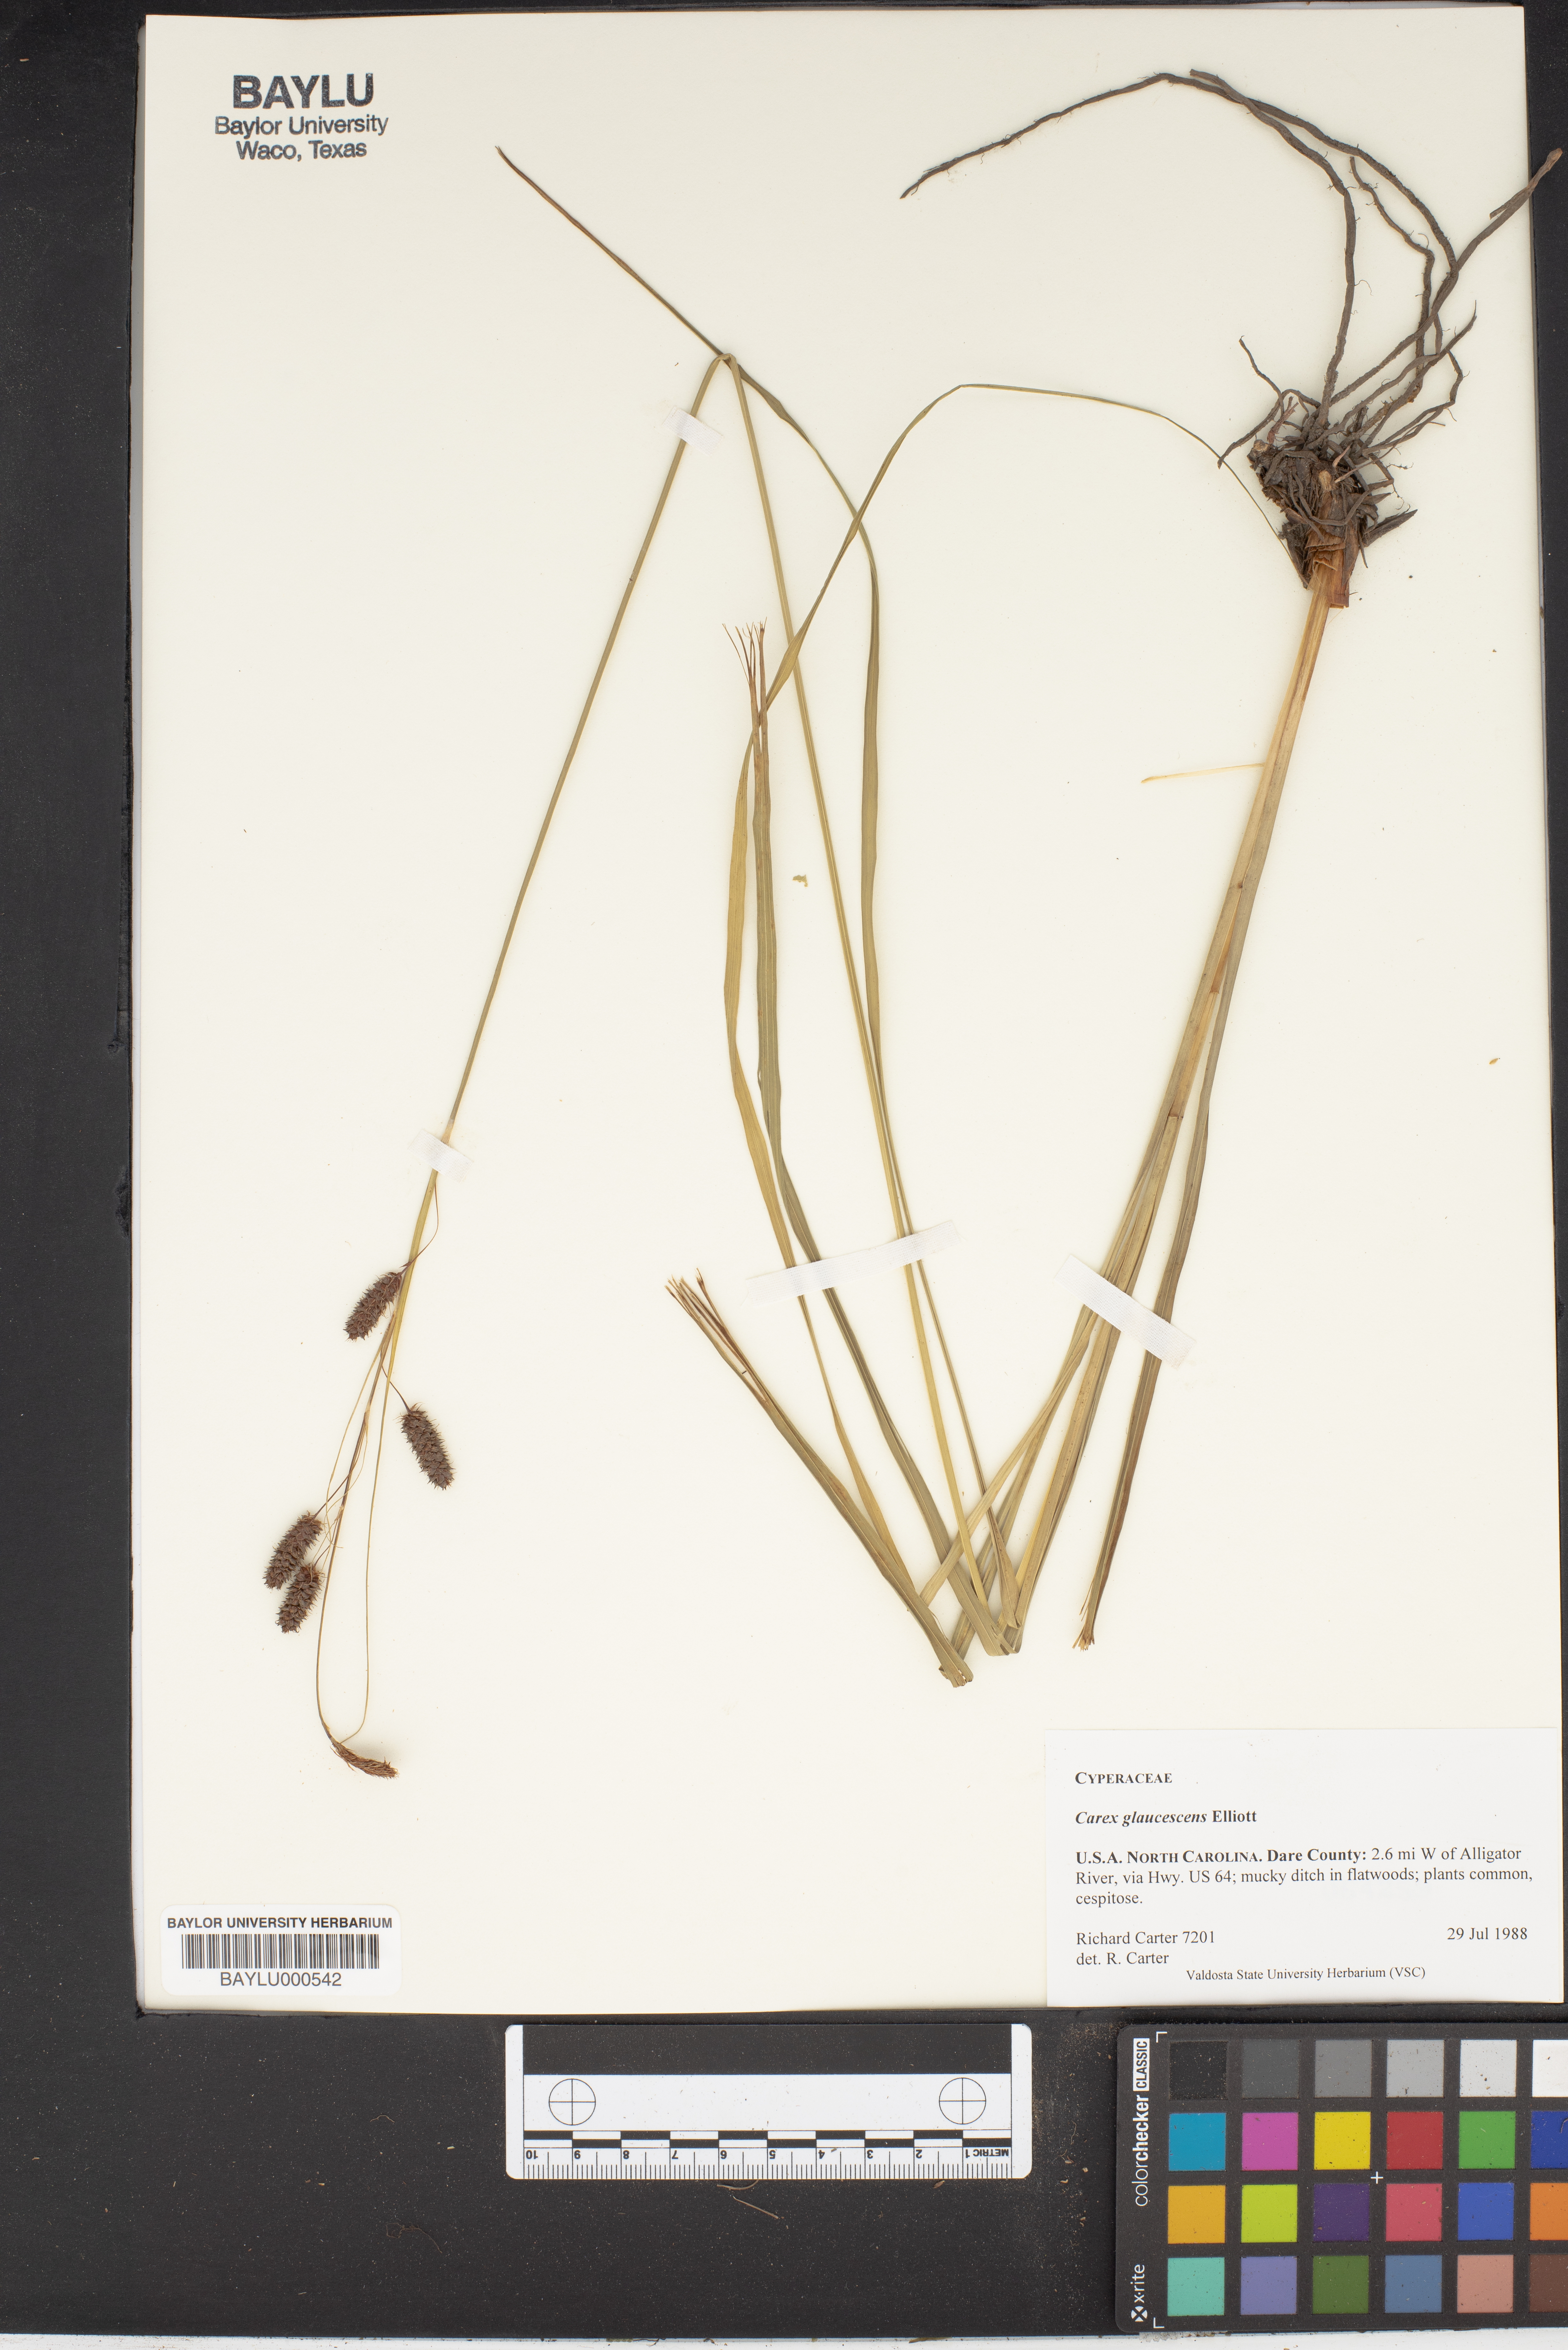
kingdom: Plantae
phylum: Tracheophyta
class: Liliopsida
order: Poales
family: Cyperaceae
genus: Carex
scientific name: Carex glaucescens
